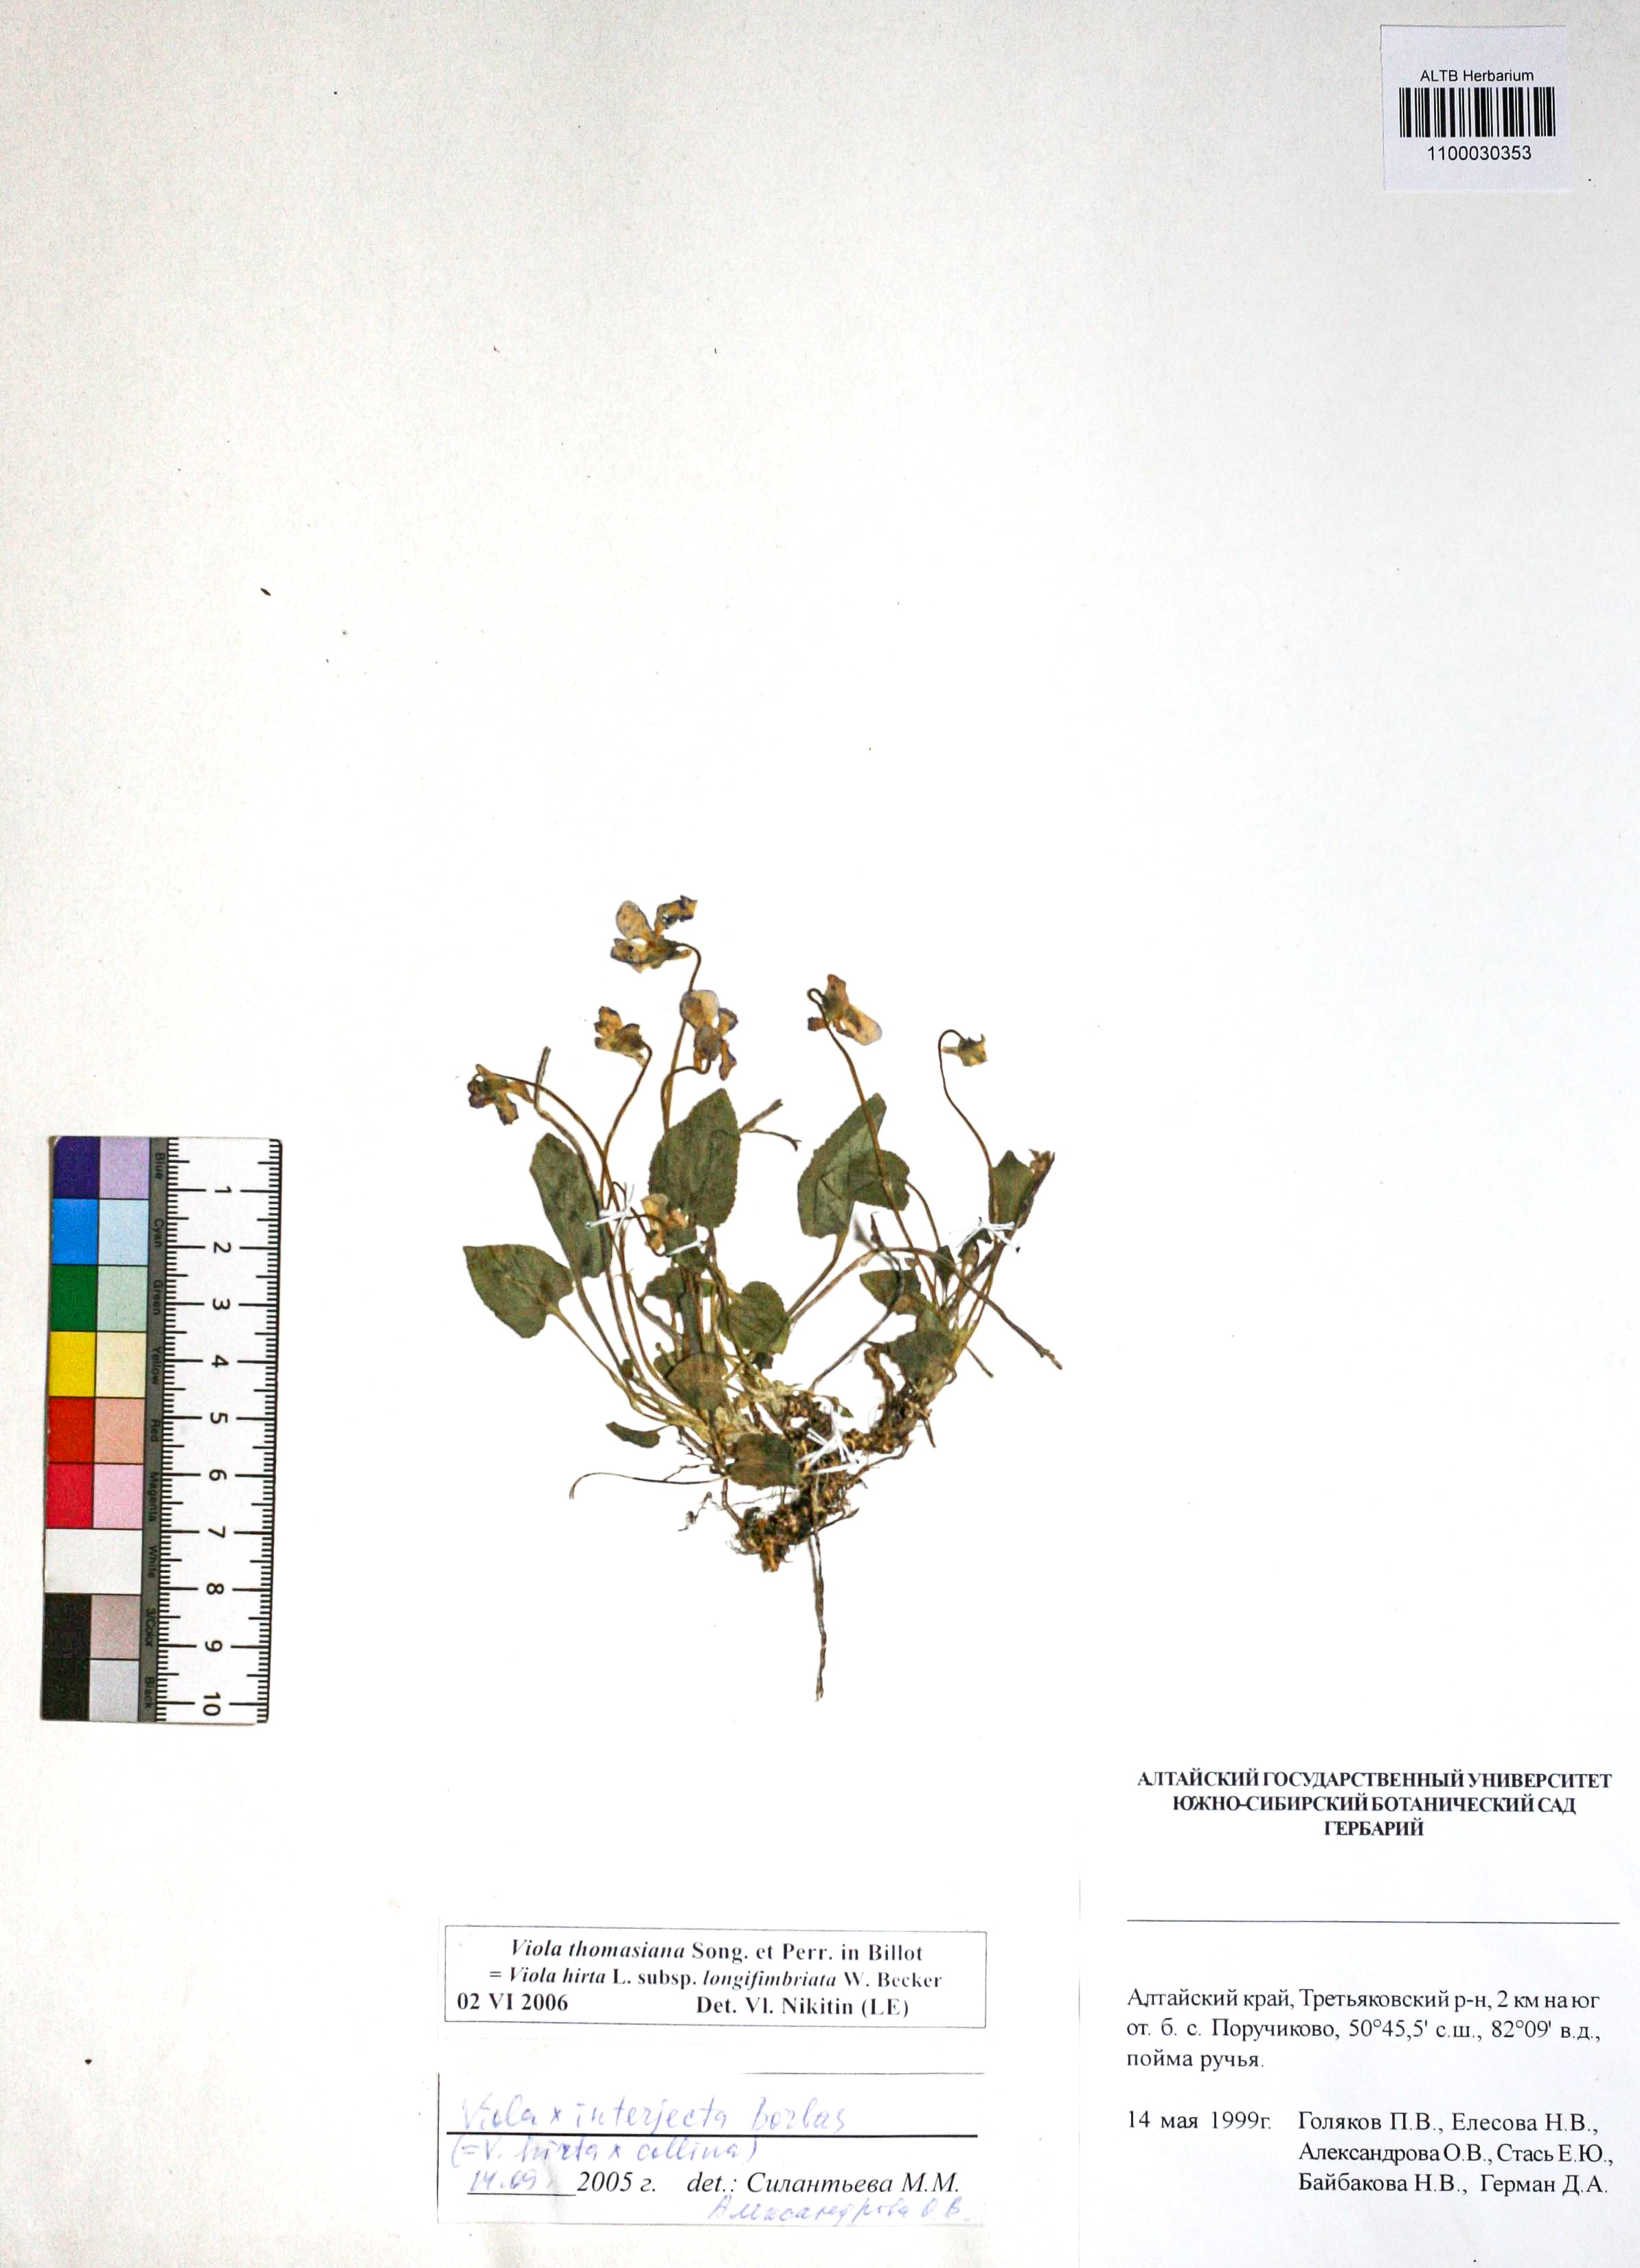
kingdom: Plantae
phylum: Tracheophyta
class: Magnoliopsida
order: Malpighiales
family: Violaceae
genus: Viola
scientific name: Viola thomasiana
